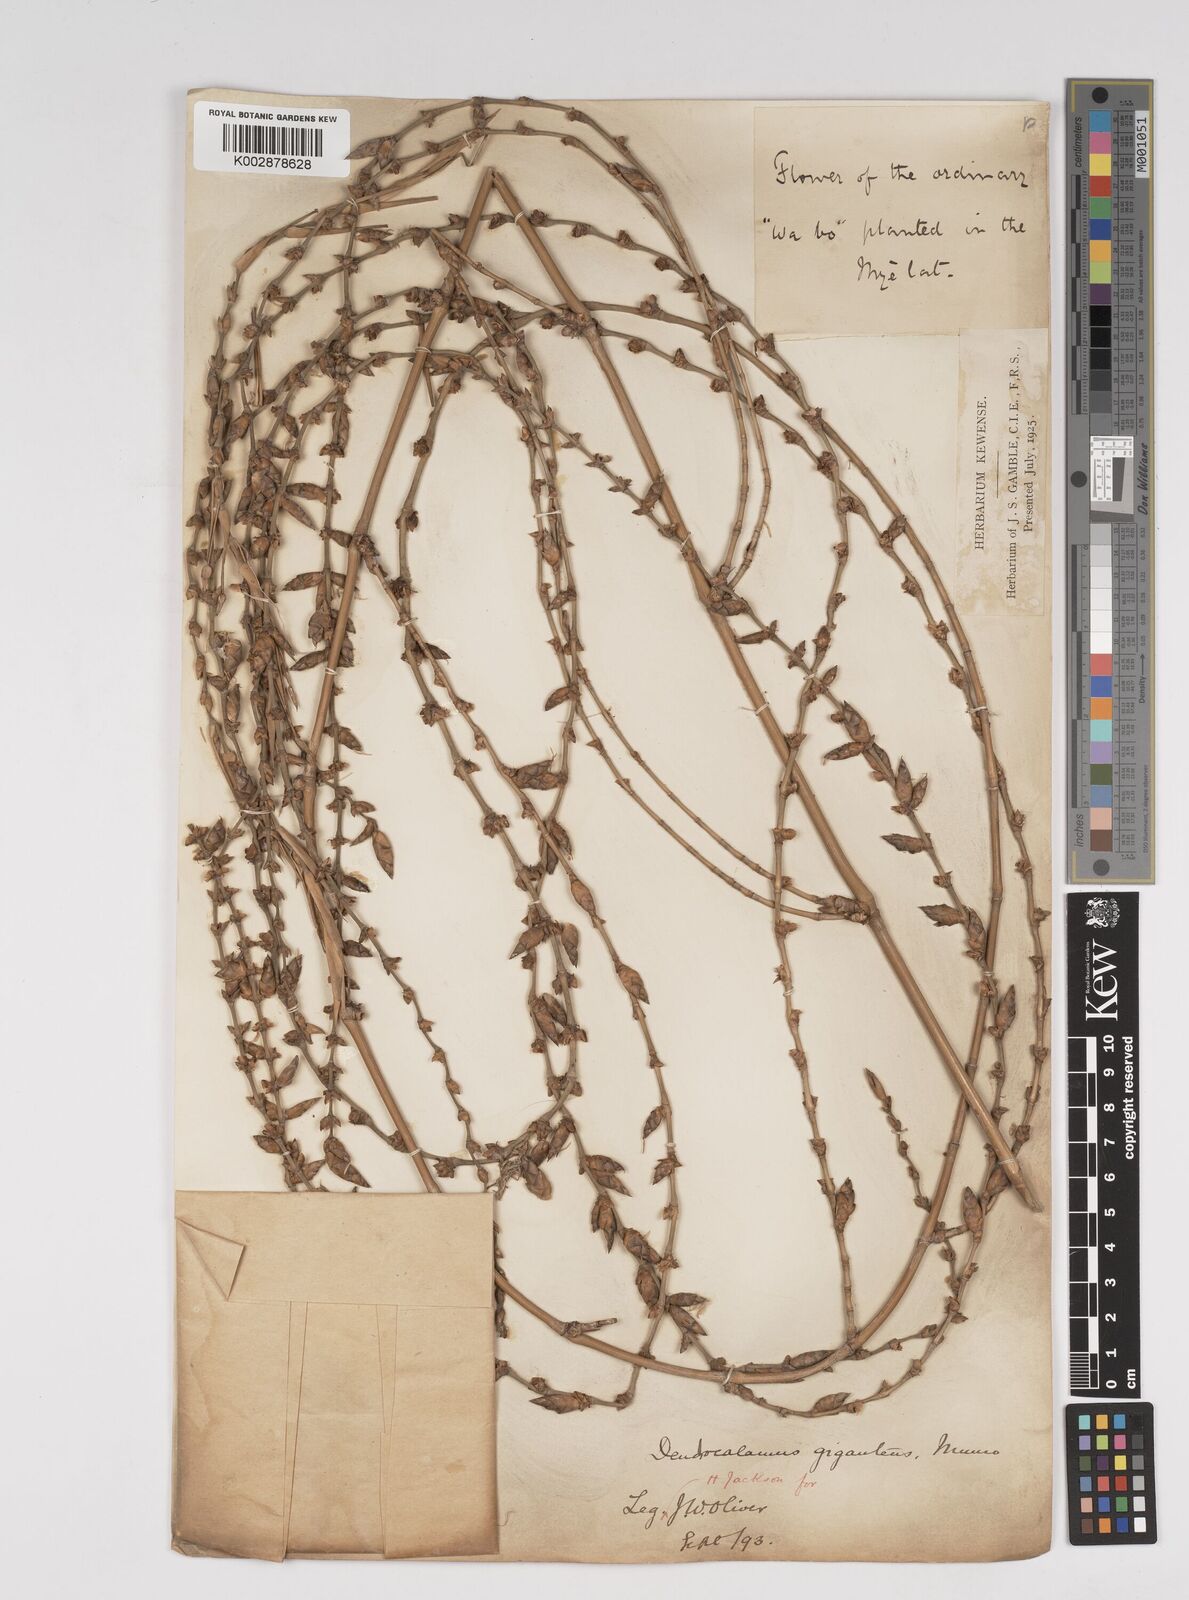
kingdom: Plantae
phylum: Tracheophyta
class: Liliopsida
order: Poales
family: Poaceae
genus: Dendrocalamus
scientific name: Dendrocalamus giganteus
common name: Giant bamboo
